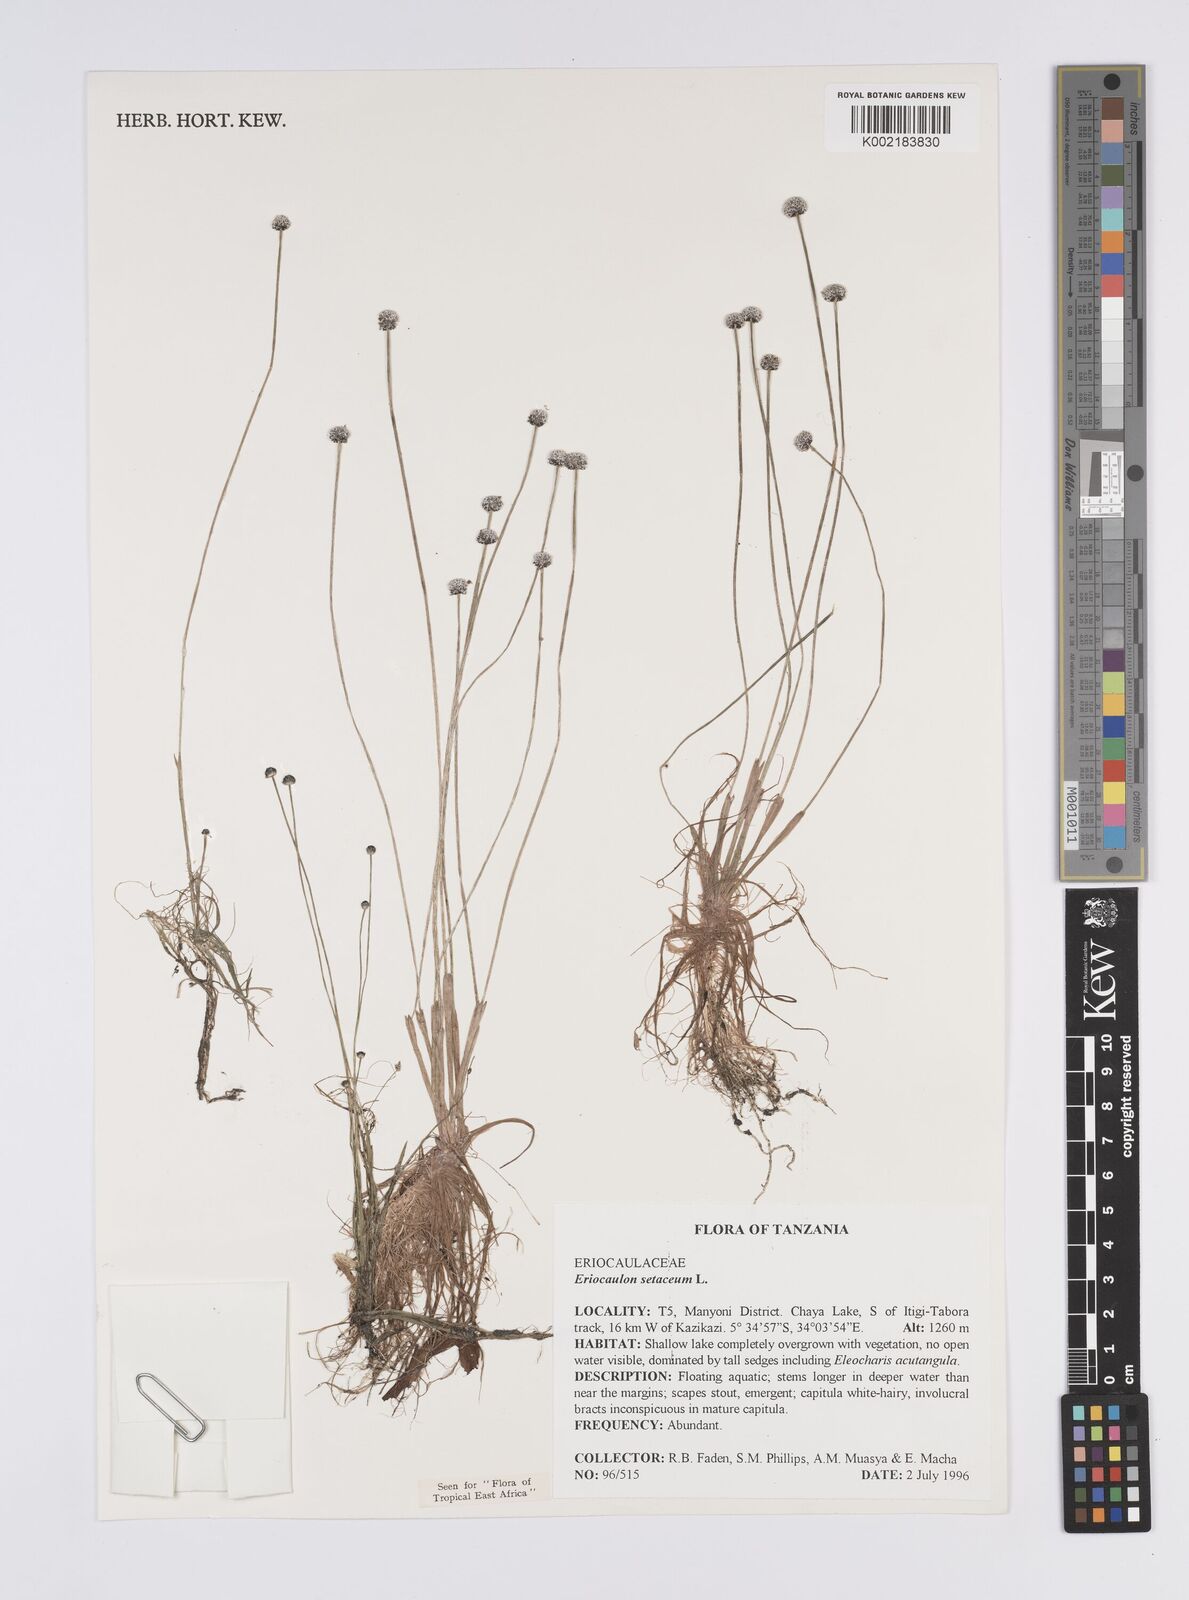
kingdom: Plantae
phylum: Tracheophyta
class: Liliopsida
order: Poales
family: Eriocaulaceae
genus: Eriocaulon
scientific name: Eriocaulon setaceum
